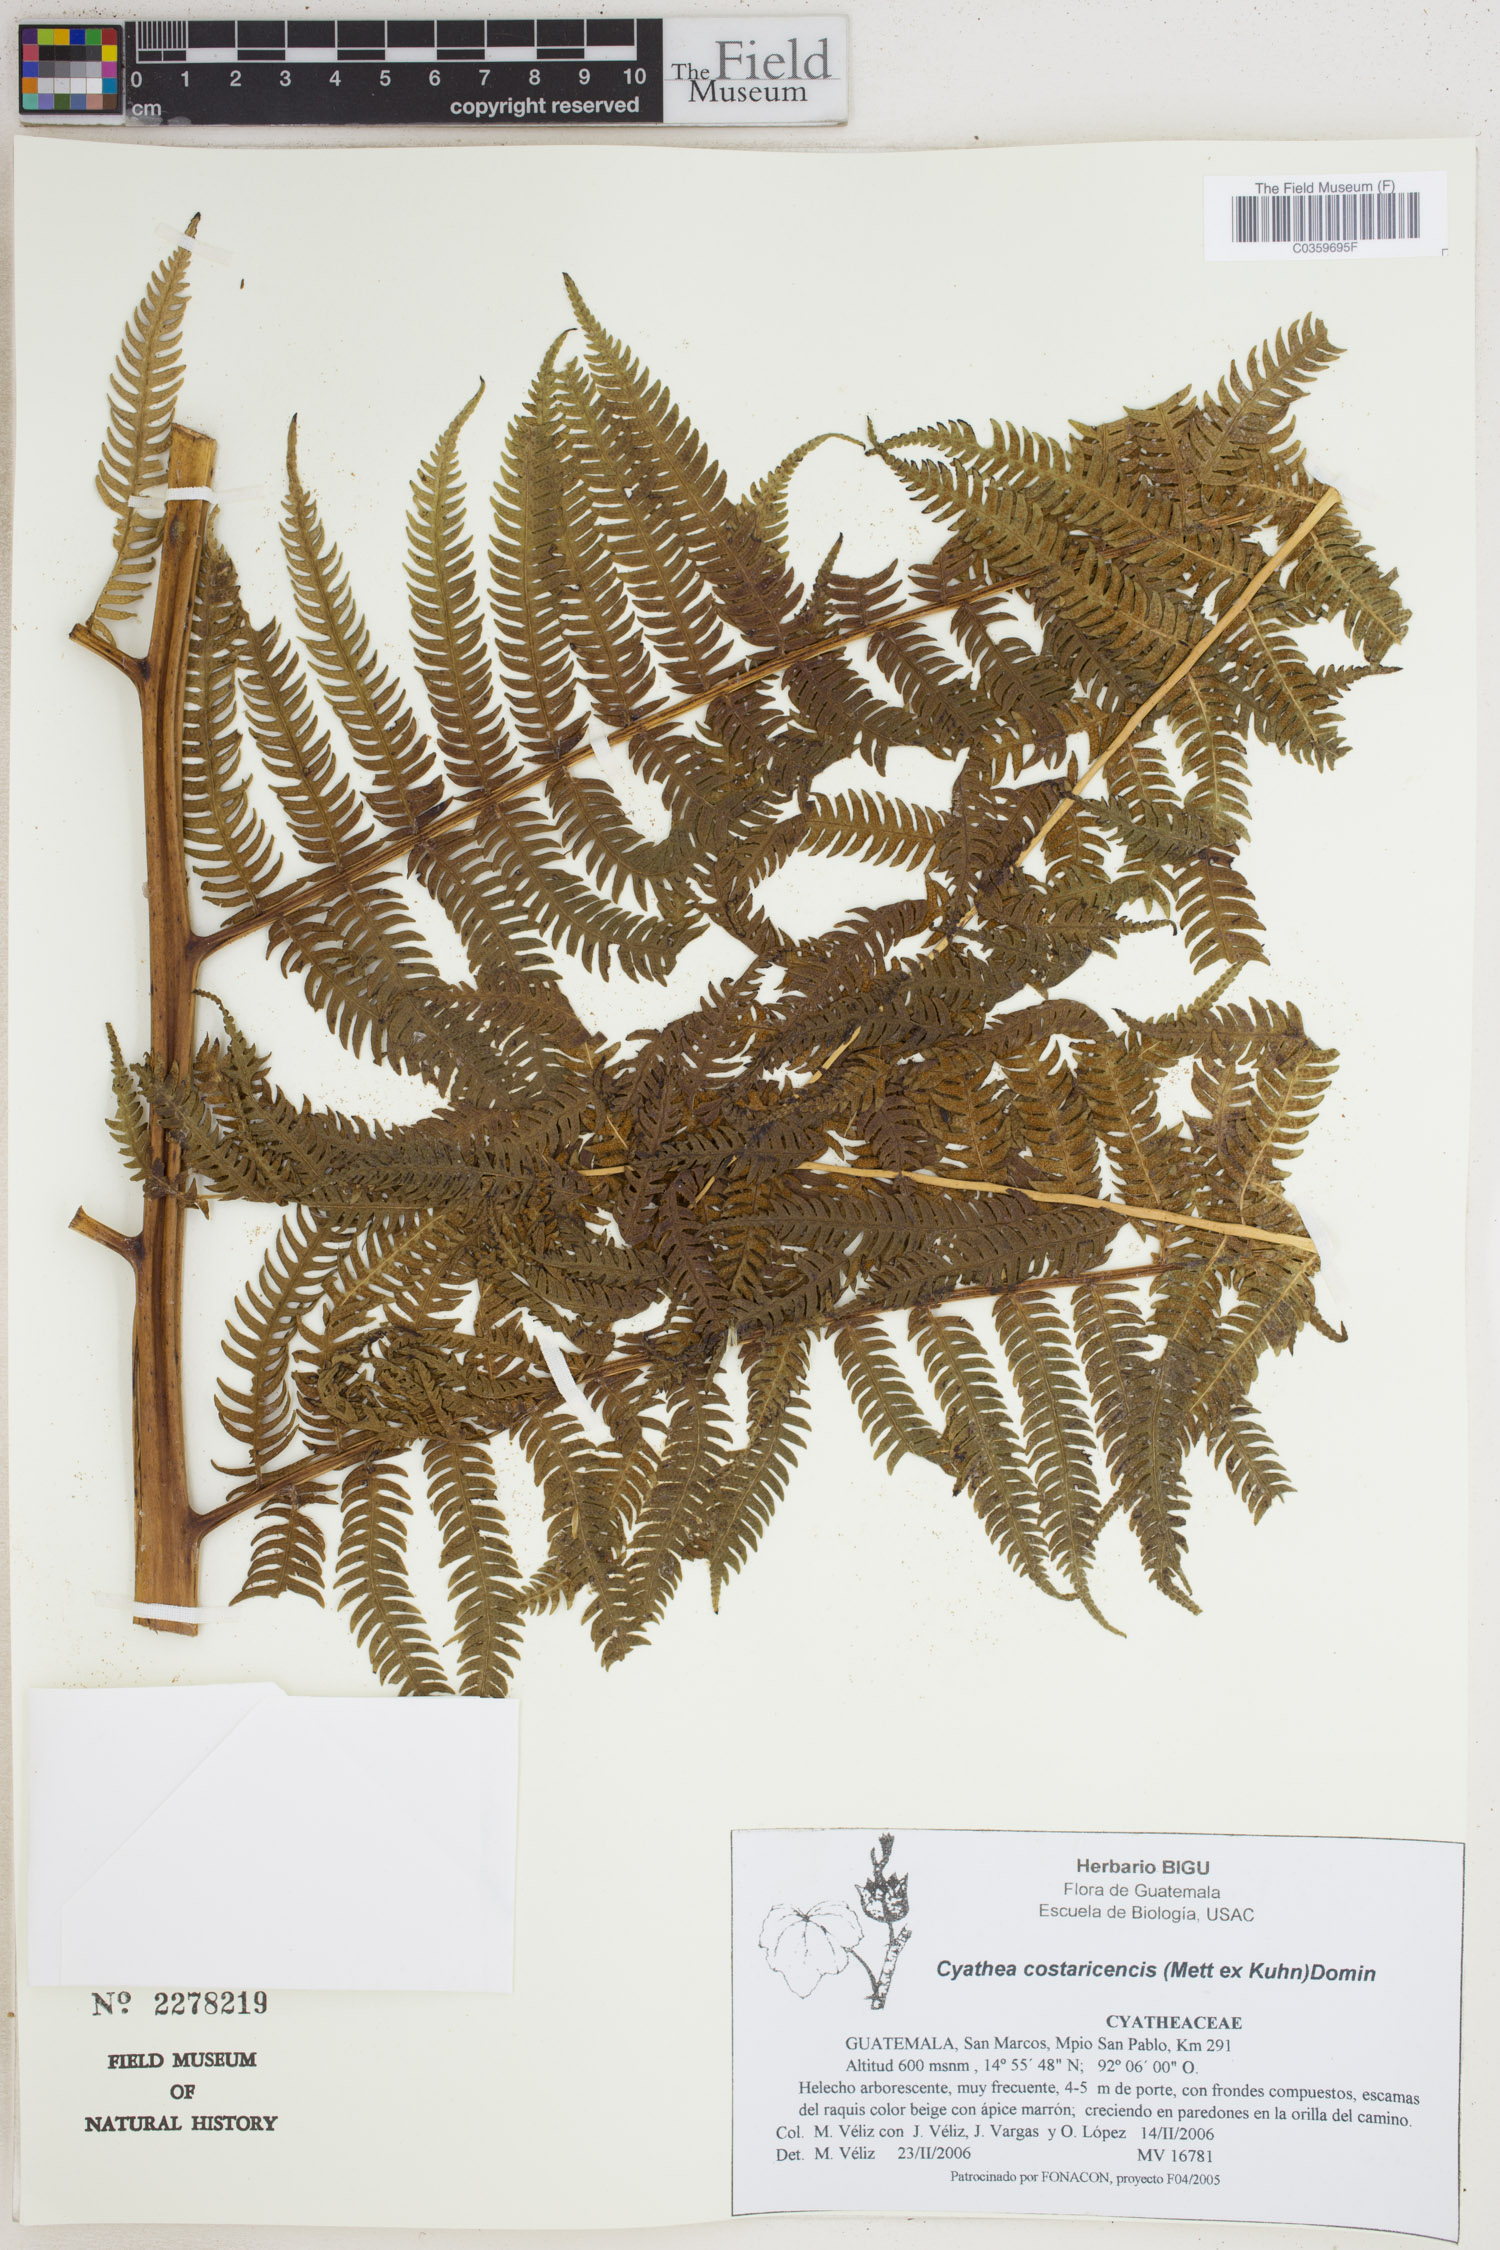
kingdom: Plantae
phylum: Tracheophyta
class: Polypodiopsida
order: Cyatheales
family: Cyatheaceae
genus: Cyathea
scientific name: Cyathea costaricensis
